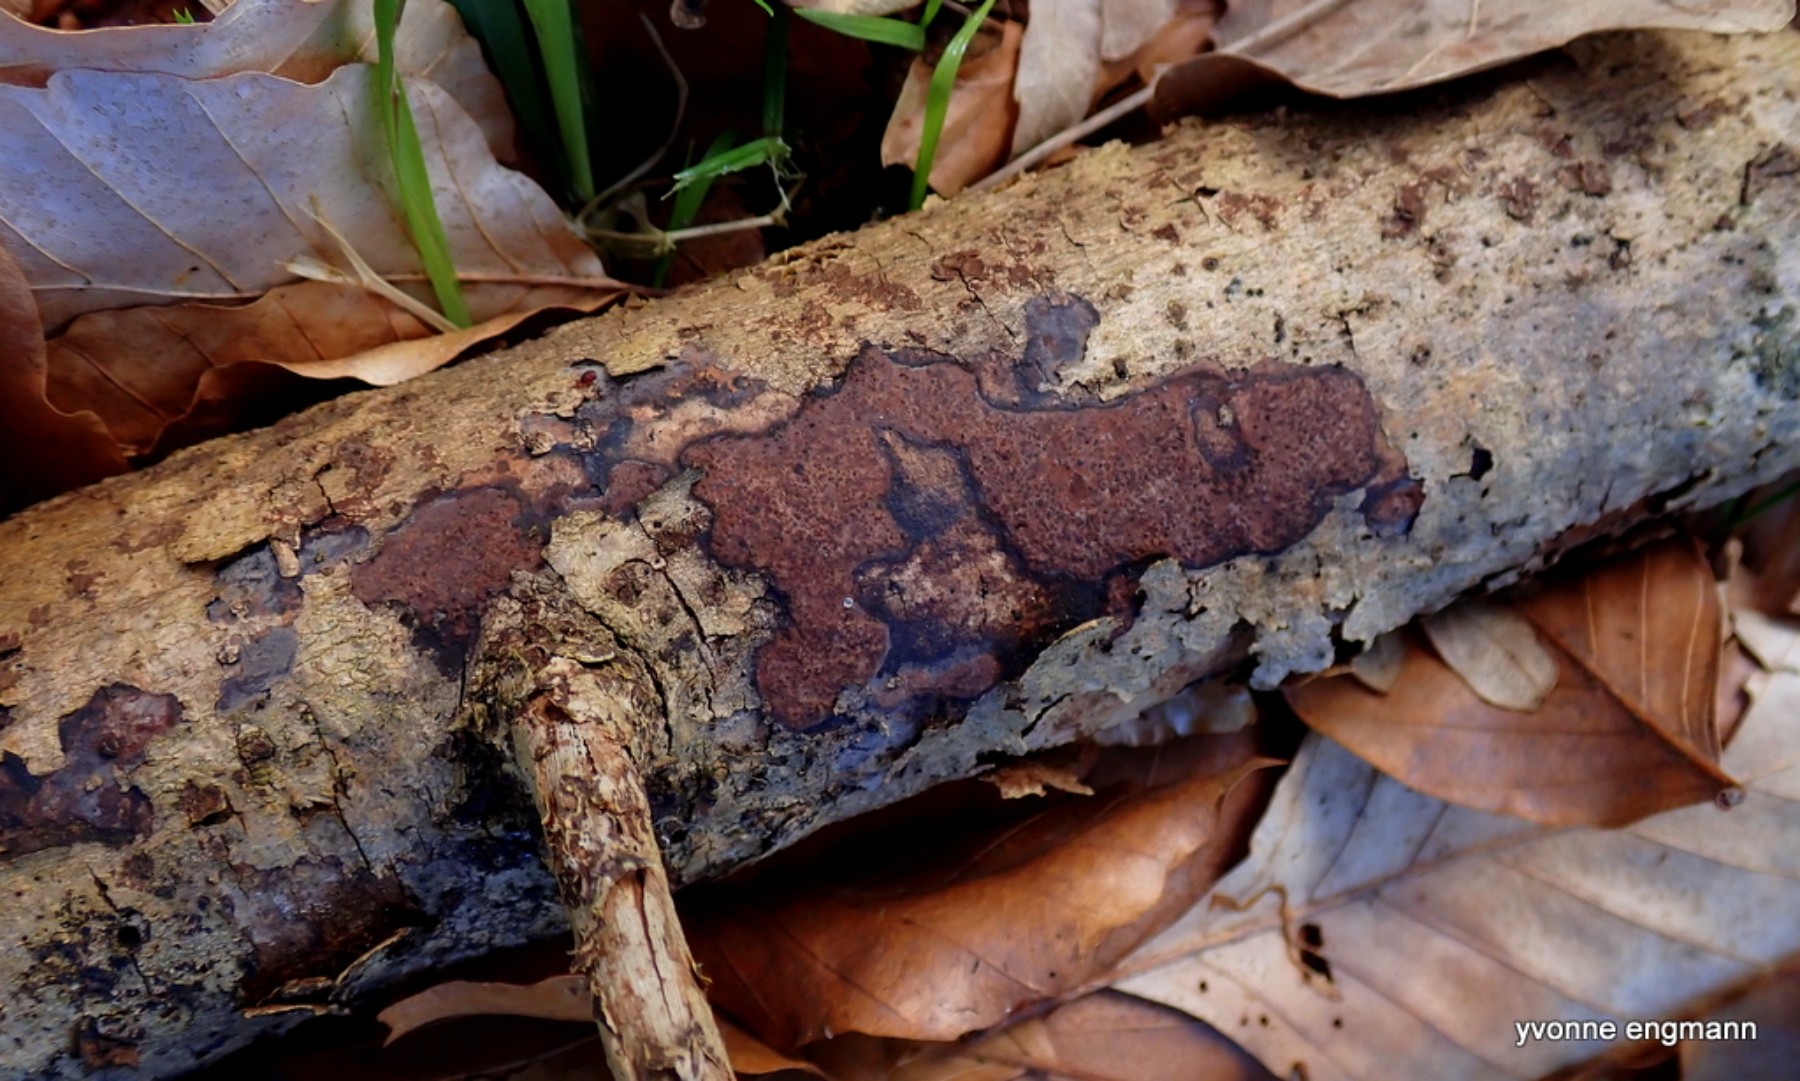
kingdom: Fungi
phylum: Ascomycota
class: Sordariomycetes
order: Xylariales
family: Hypoxylaceae
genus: Hypoxylon
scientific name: Hypoxylon petriniae
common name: nedsænket kulbær
